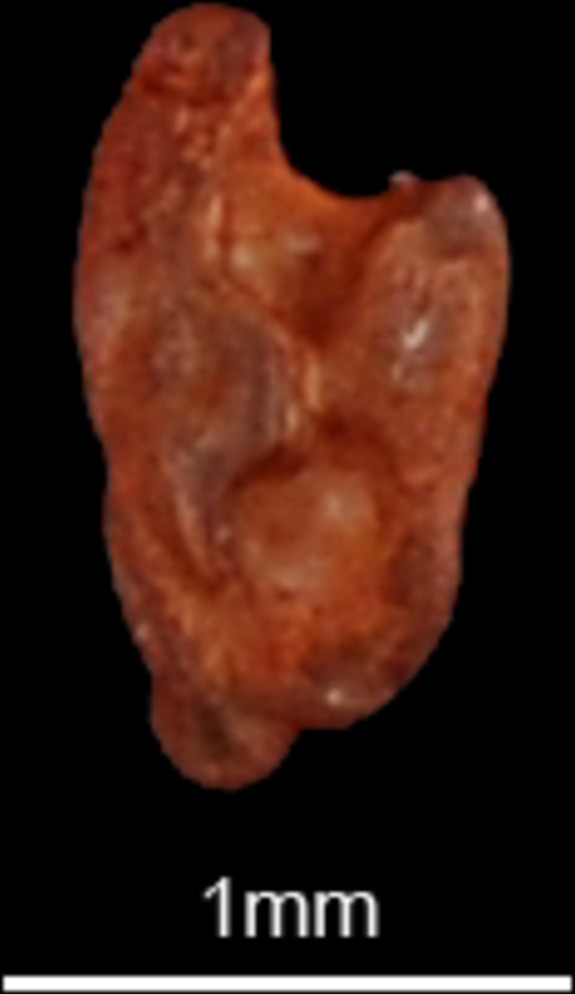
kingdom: Animalia
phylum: Chordata
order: Perciformes
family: Blenniidae
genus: Salaria
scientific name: Salaria pavo
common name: Peacock blenny
